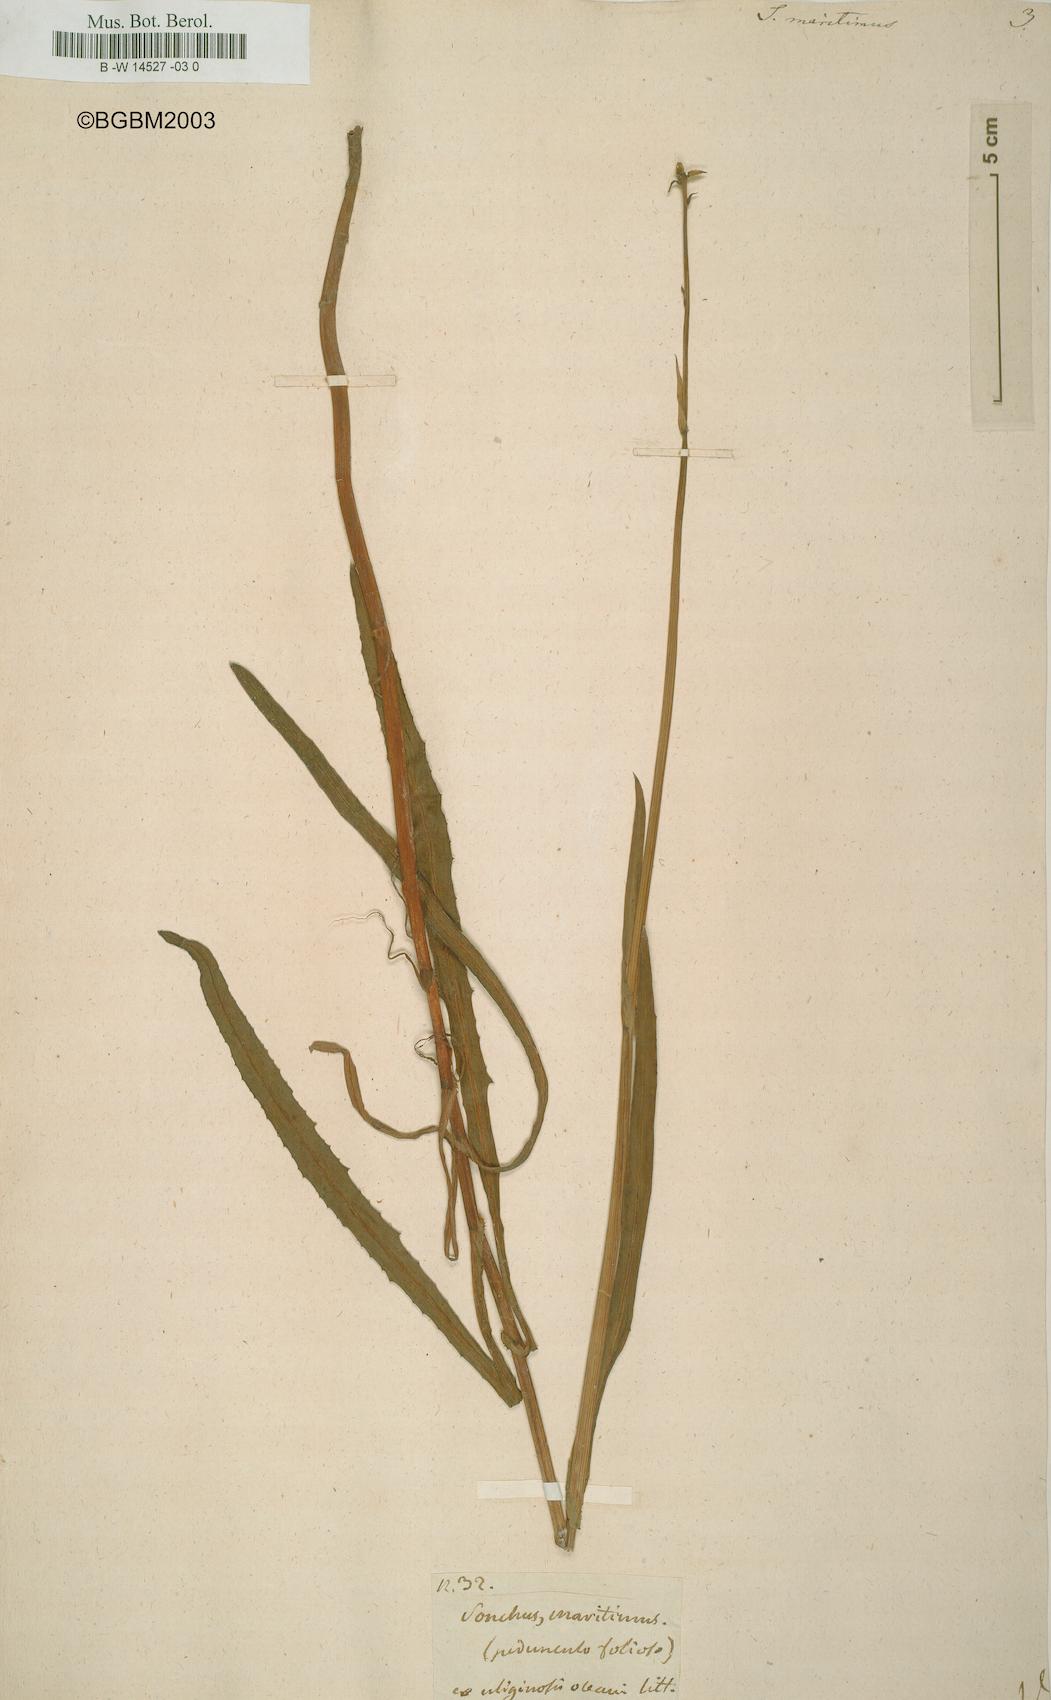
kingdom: Plantae
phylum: Tracheophyta
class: Magnoliopsida
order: Asterales
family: Asteraceae
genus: Sonchus
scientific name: Sonchus maritimus
